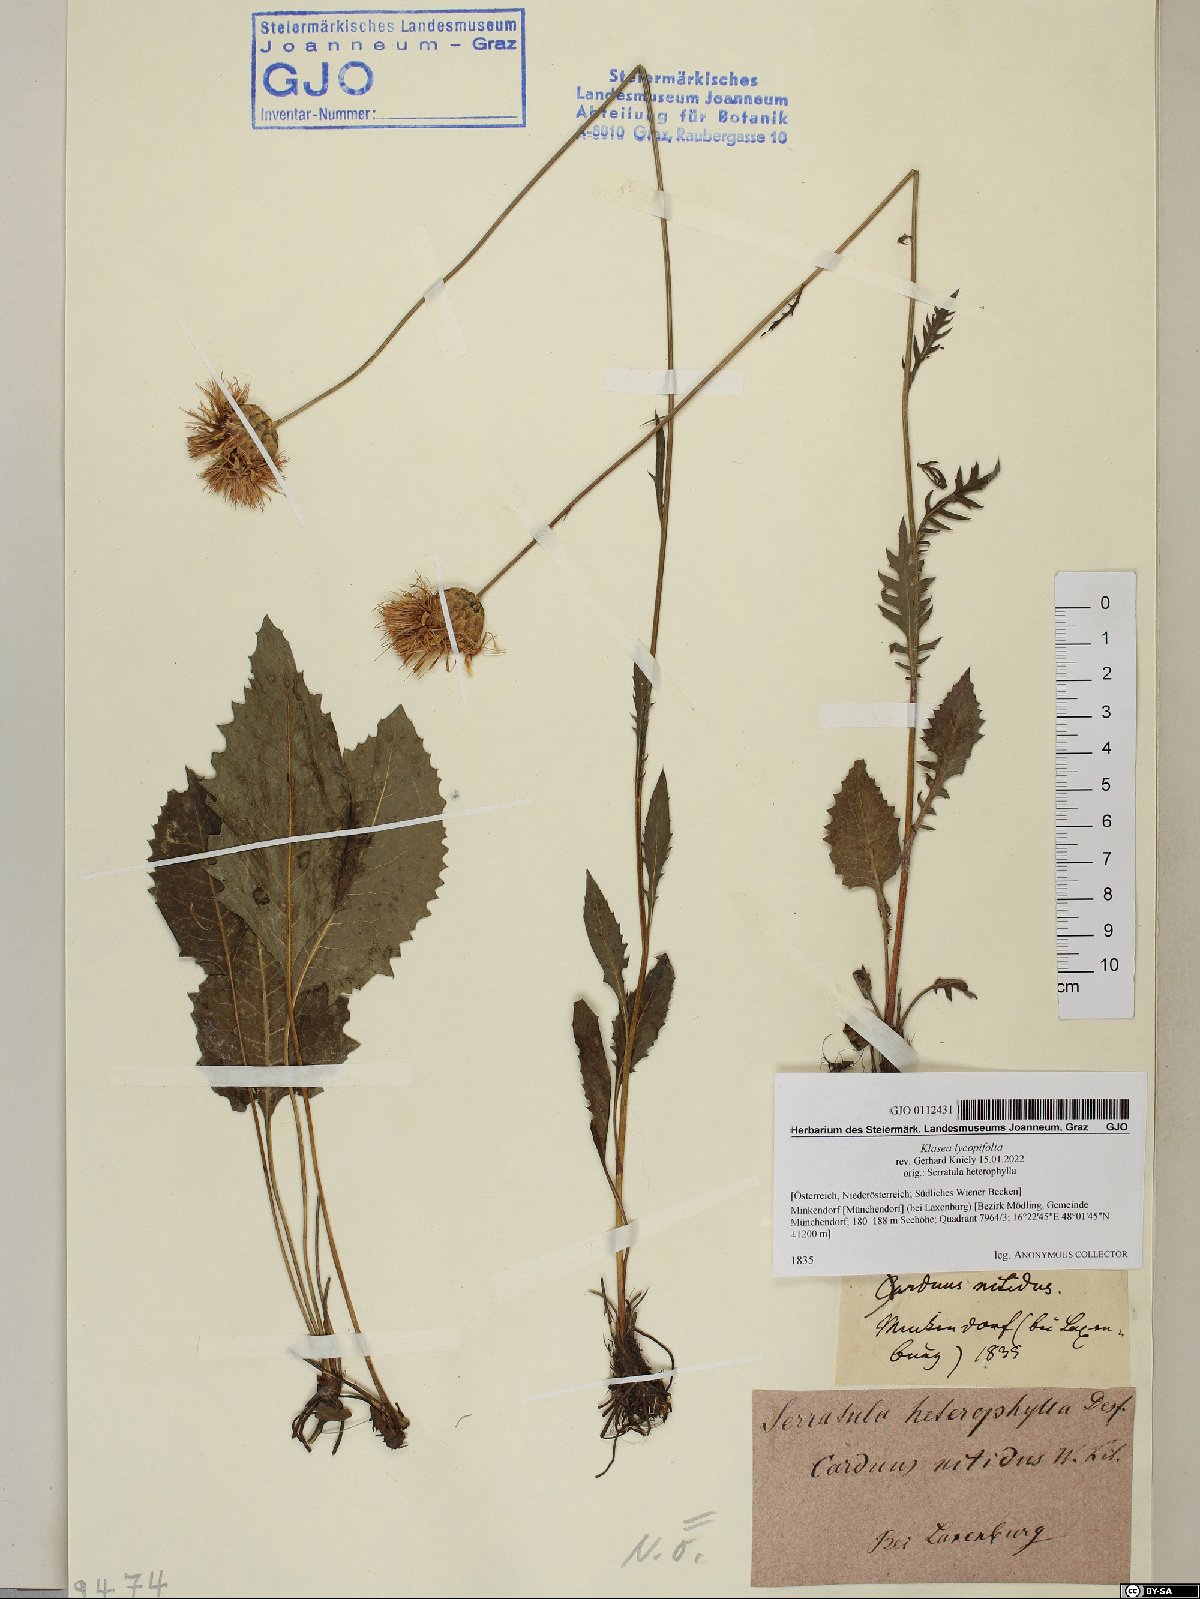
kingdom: Plantae
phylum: Tracheophyta
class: Magnoliopsida
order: Asterales
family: Asteraceae
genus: Klasea
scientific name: Klasea lycopifolia
